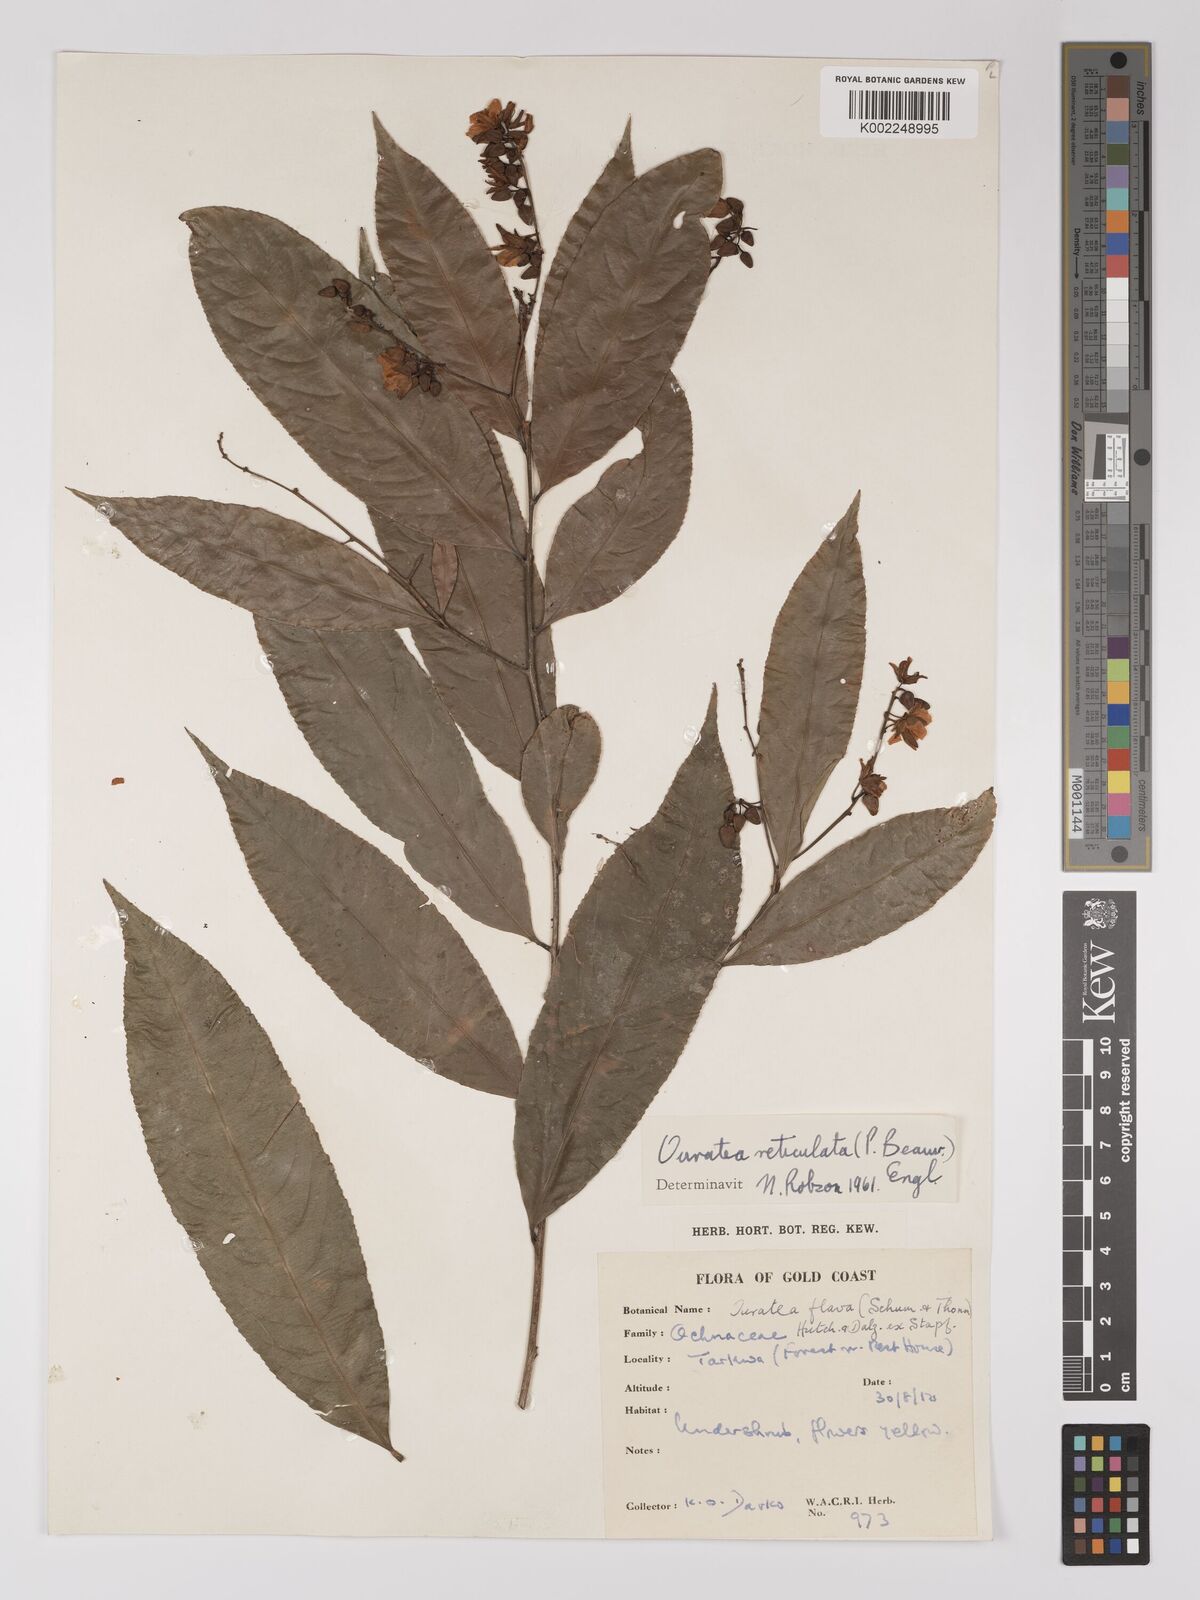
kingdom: Plantae
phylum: Tracheophyta
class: Magnoliopsida
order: Malpighiales
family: Ochnaceae
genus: Campylospermum
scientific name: Campylospermum reticulatum
